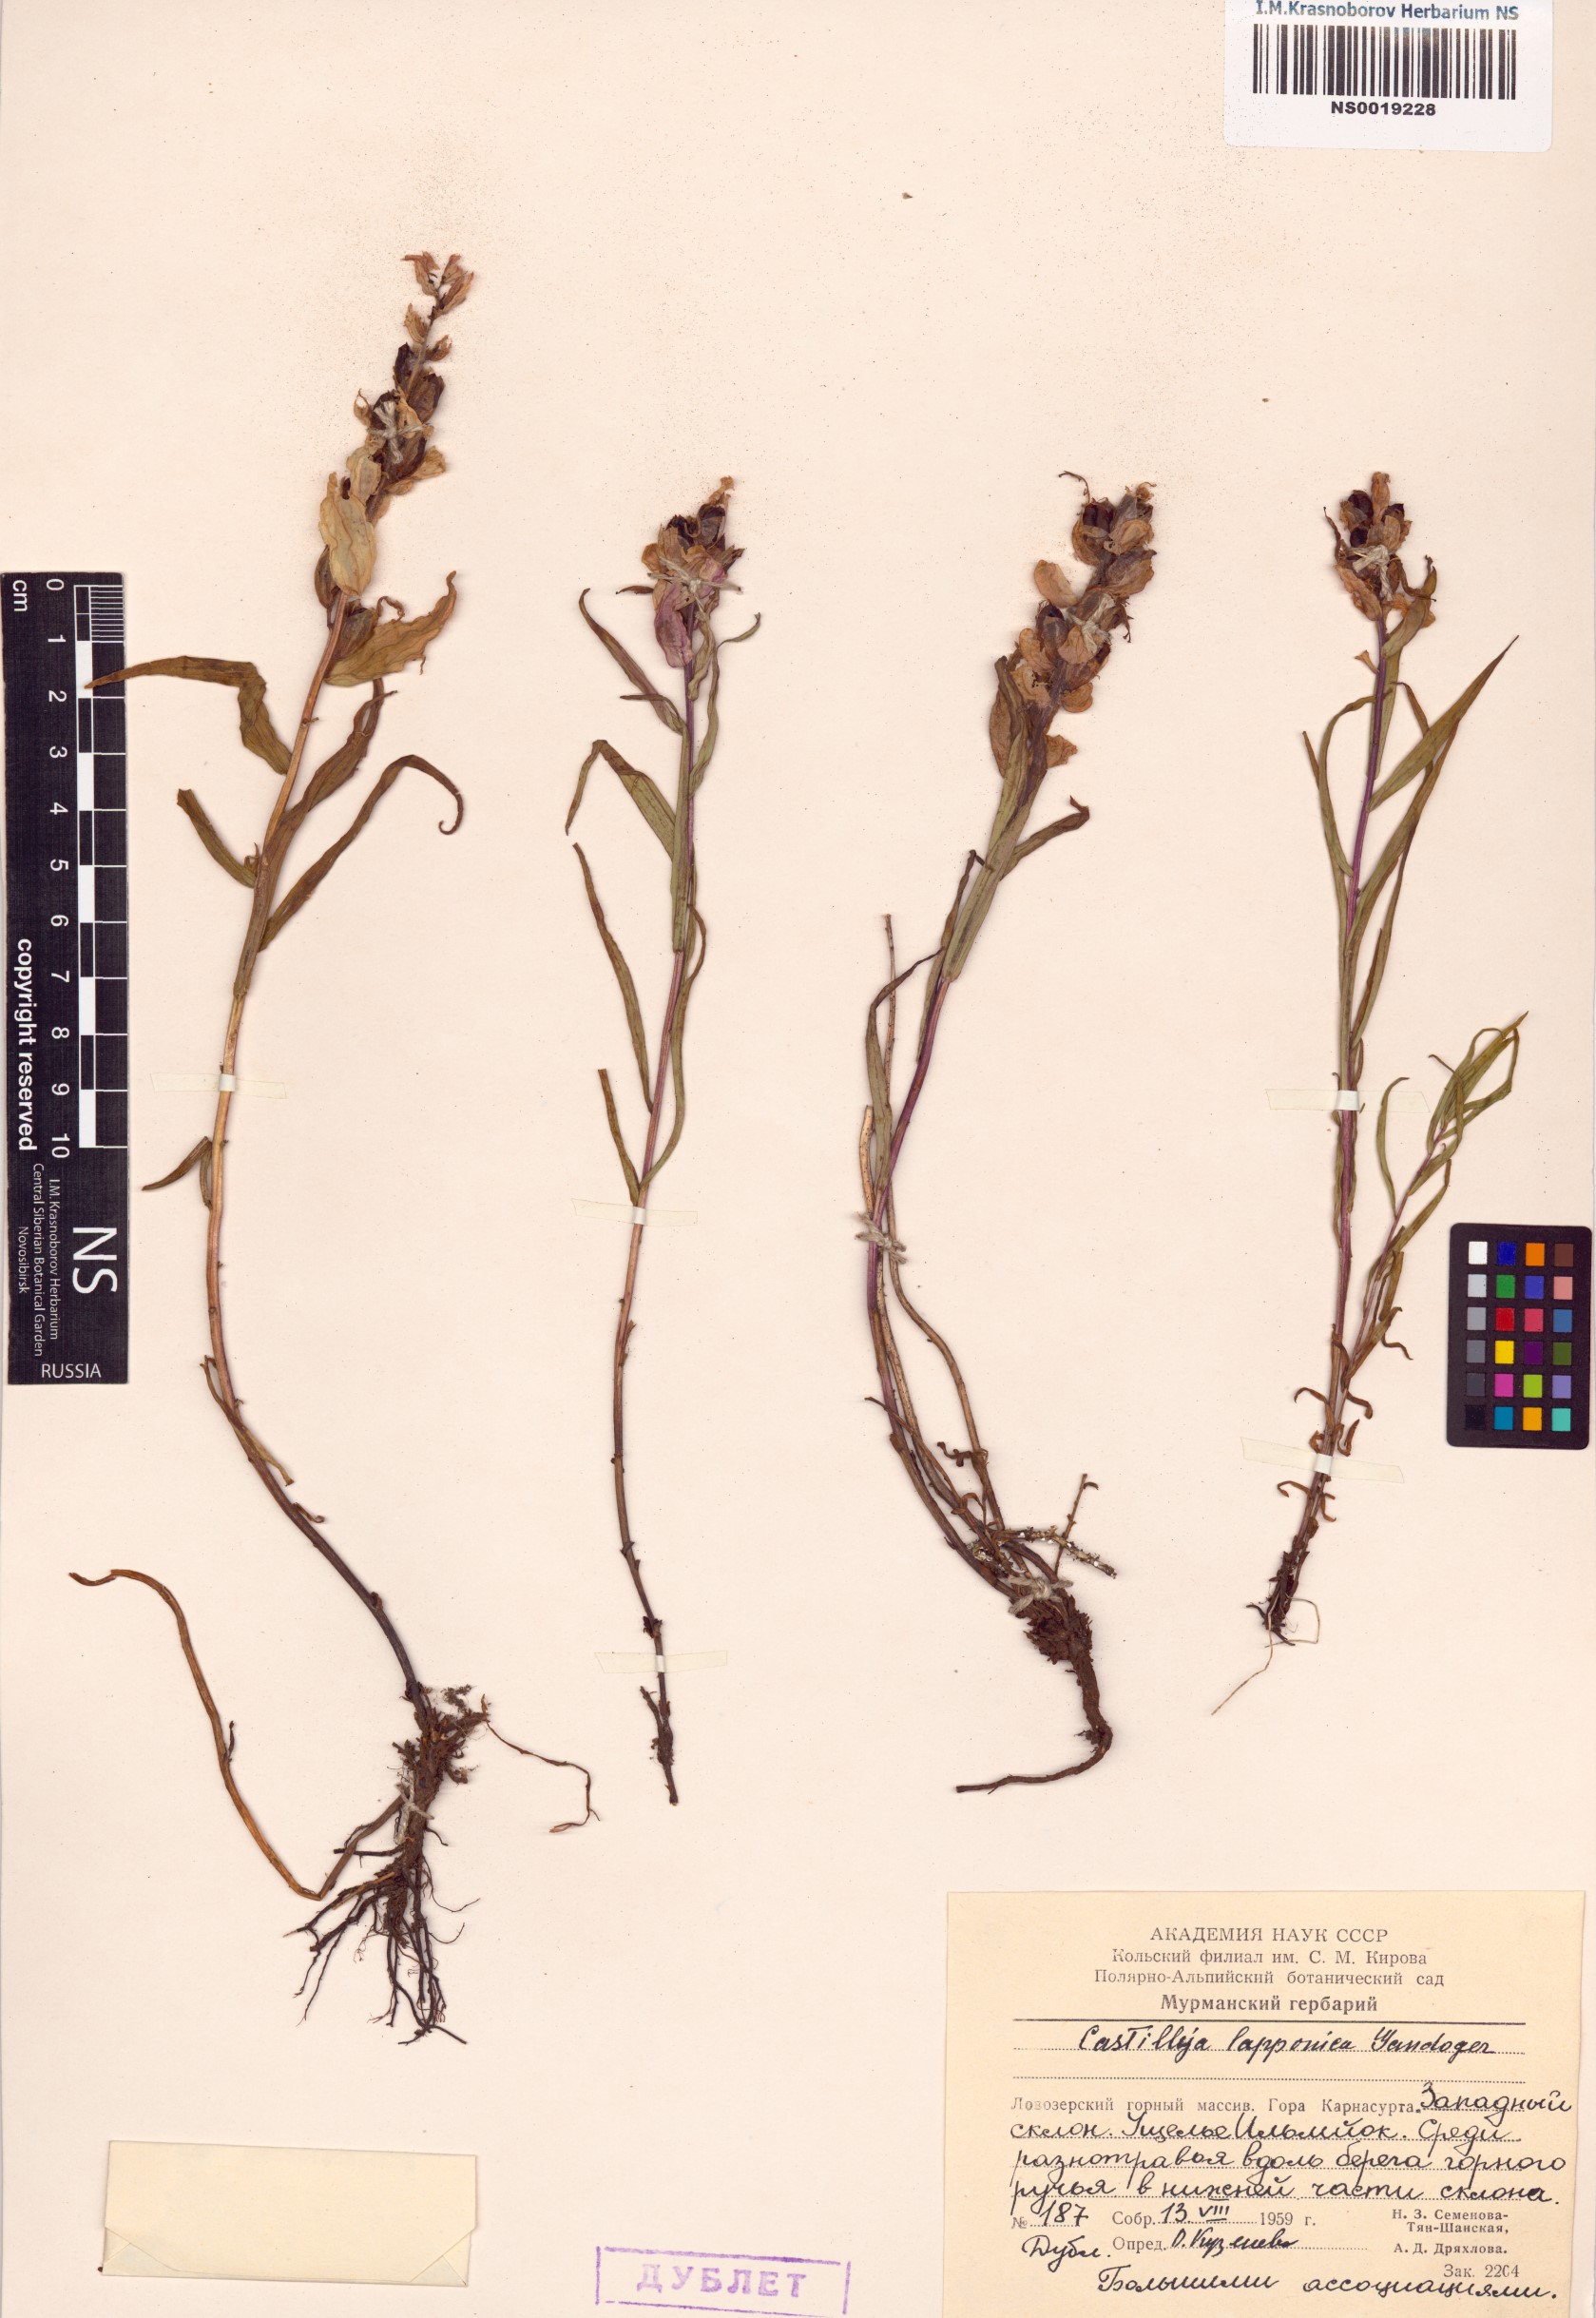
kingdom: Plantae
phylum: Tracheophyta
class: Magnoliopsida
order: Lamiales
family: Orobanchaceae
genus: Castilleja
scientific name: Castilleja lapponica
